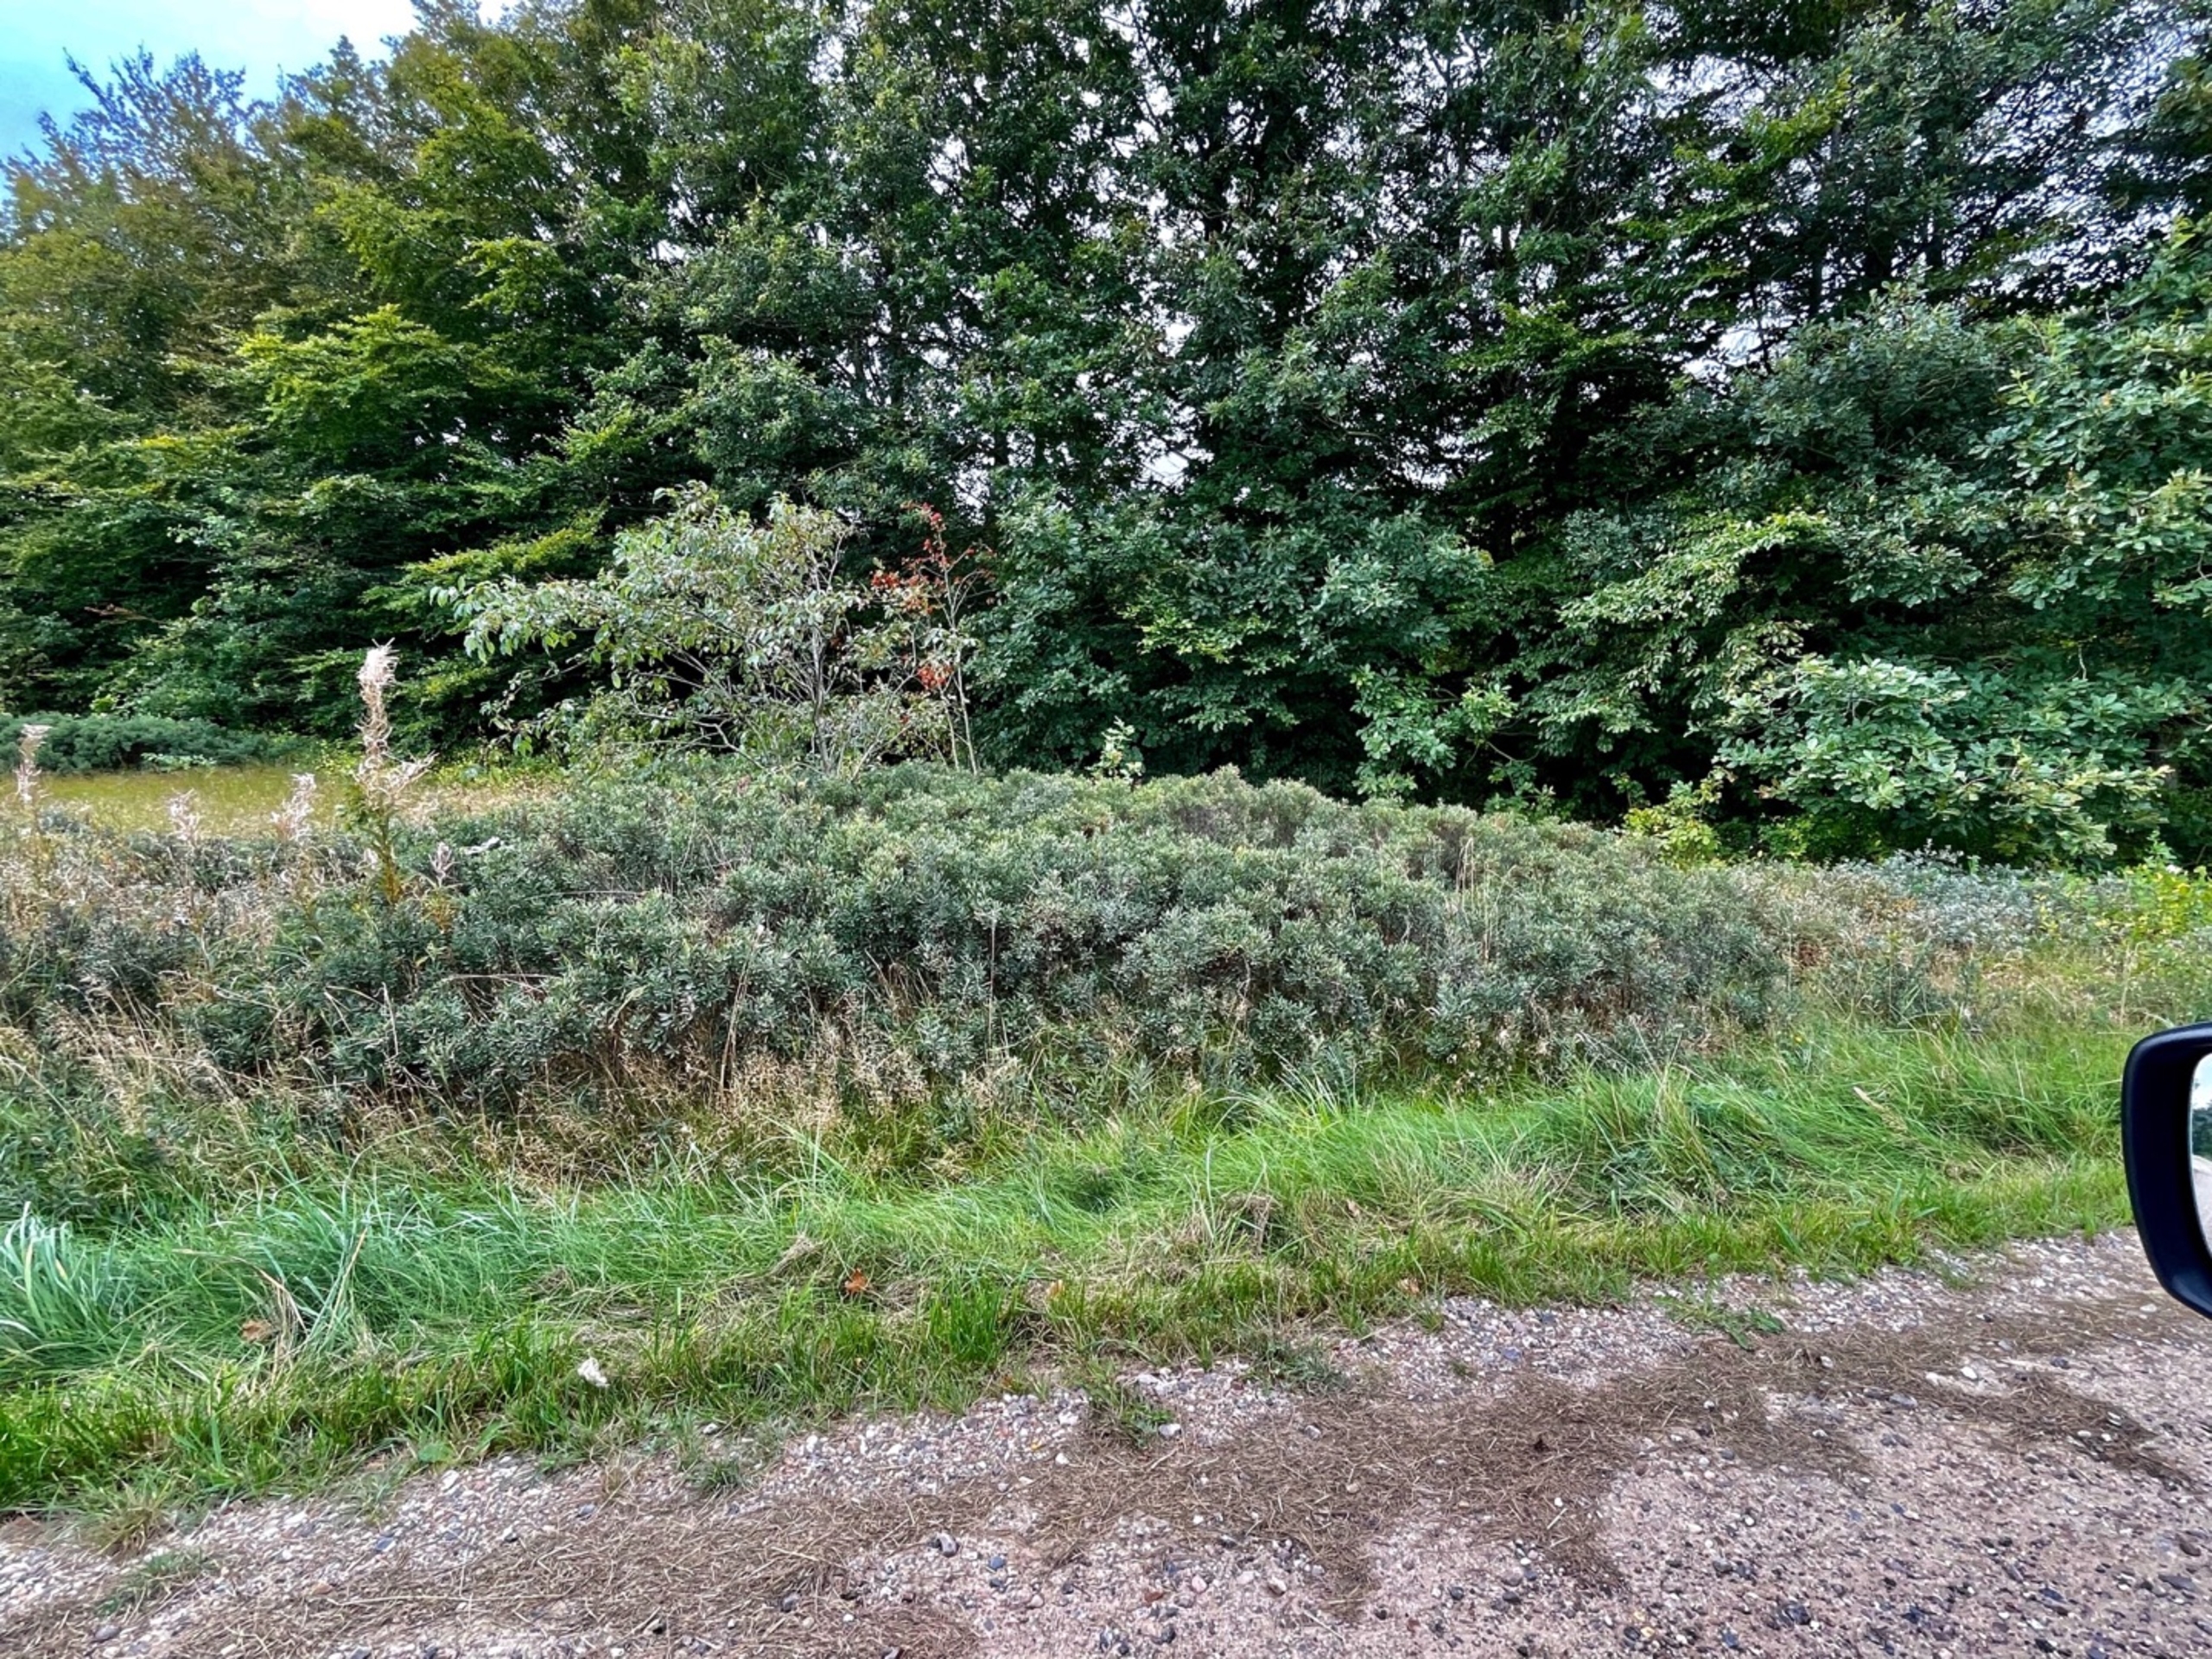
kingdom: Plantae
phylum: Tracheophyta
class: Magnoliopsida
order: Fagales
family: Myricaceae
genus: Myrica
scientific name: Myrica gale
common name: Pors
